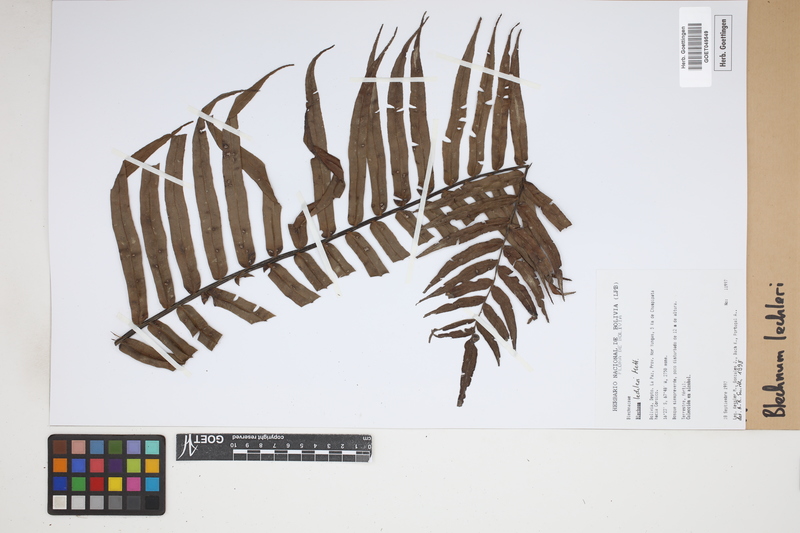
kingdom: Plantae
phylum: Tracheophyta
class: Polypodiopsida
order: Polypodiales
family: Blechnaceae
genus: Parablechnum
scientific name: Parablechnum lechleri
